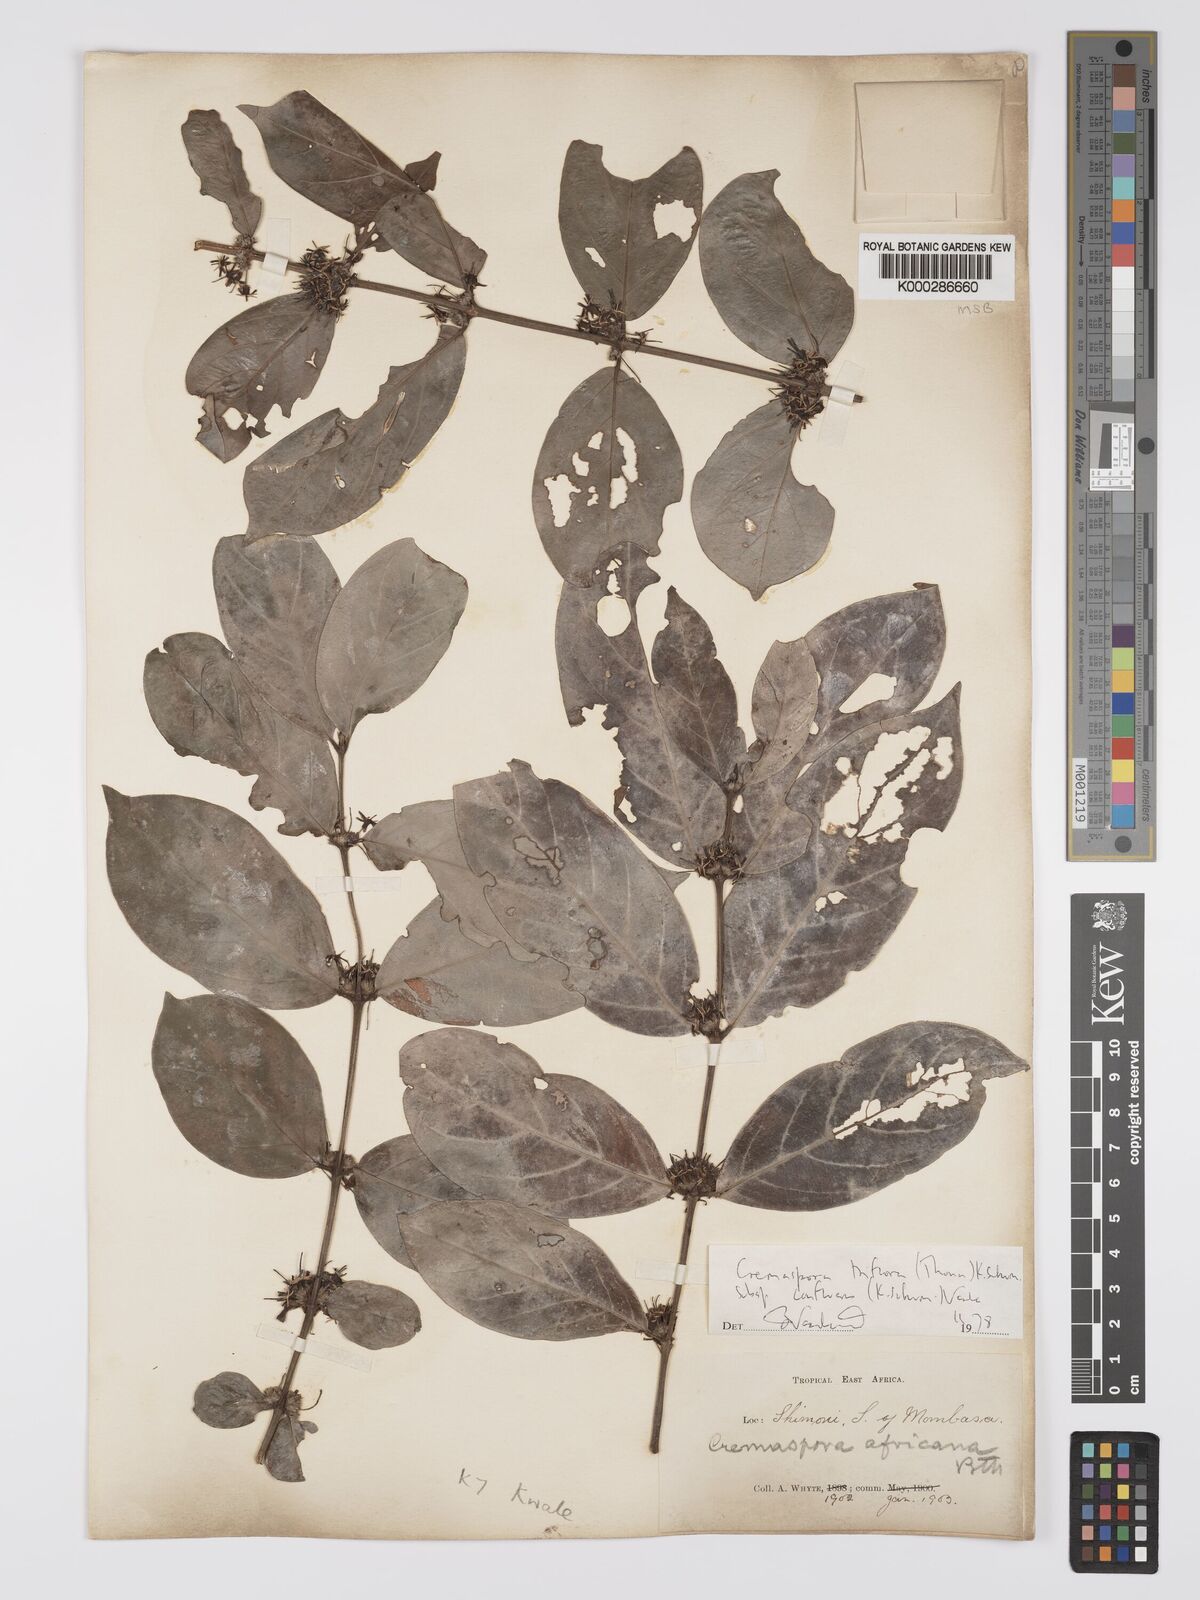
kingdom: Plantae
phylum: Tracheophyta
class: Magnoliopsida
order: Gentianales
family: Rubiaceae
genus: Cremaspora
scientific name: Cremaspora triflora
